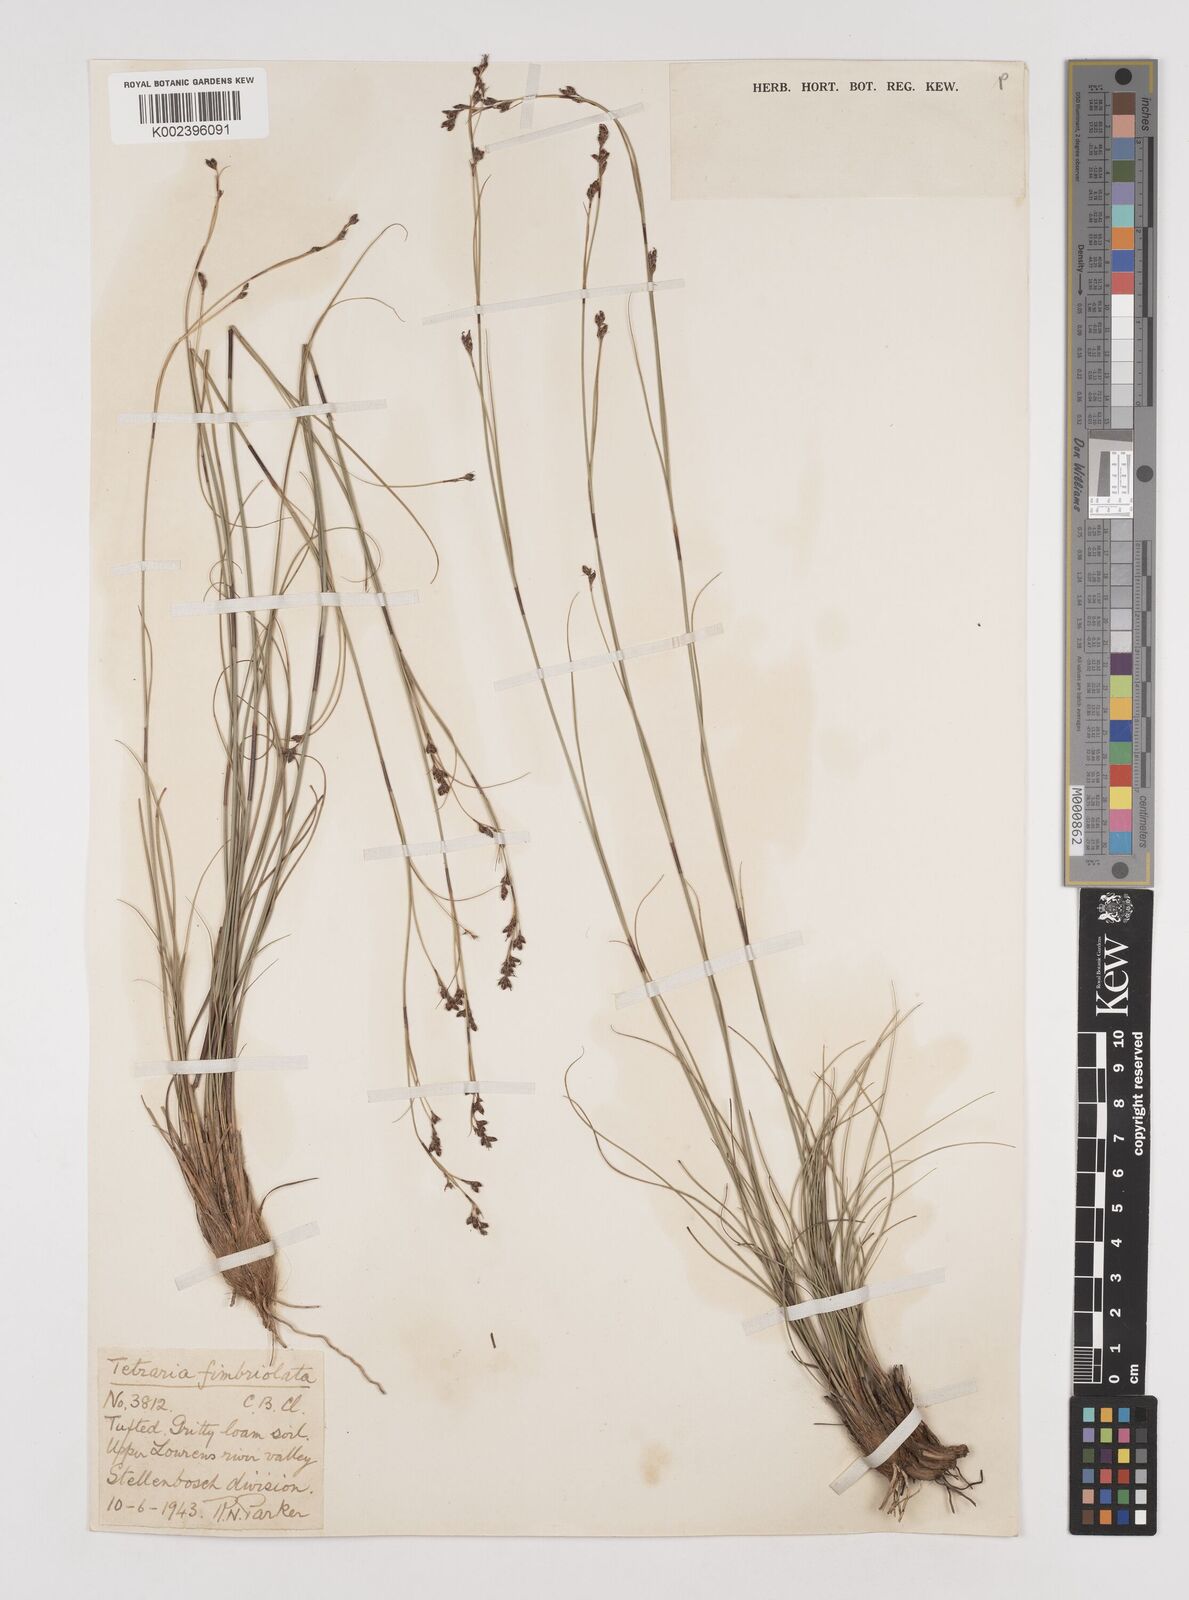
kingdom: Plantae
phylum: Tracheophyta
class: Liliopsida
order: Poales
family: Cyperaceae
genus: Tetraria
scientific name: Tetraria fimbriolata
